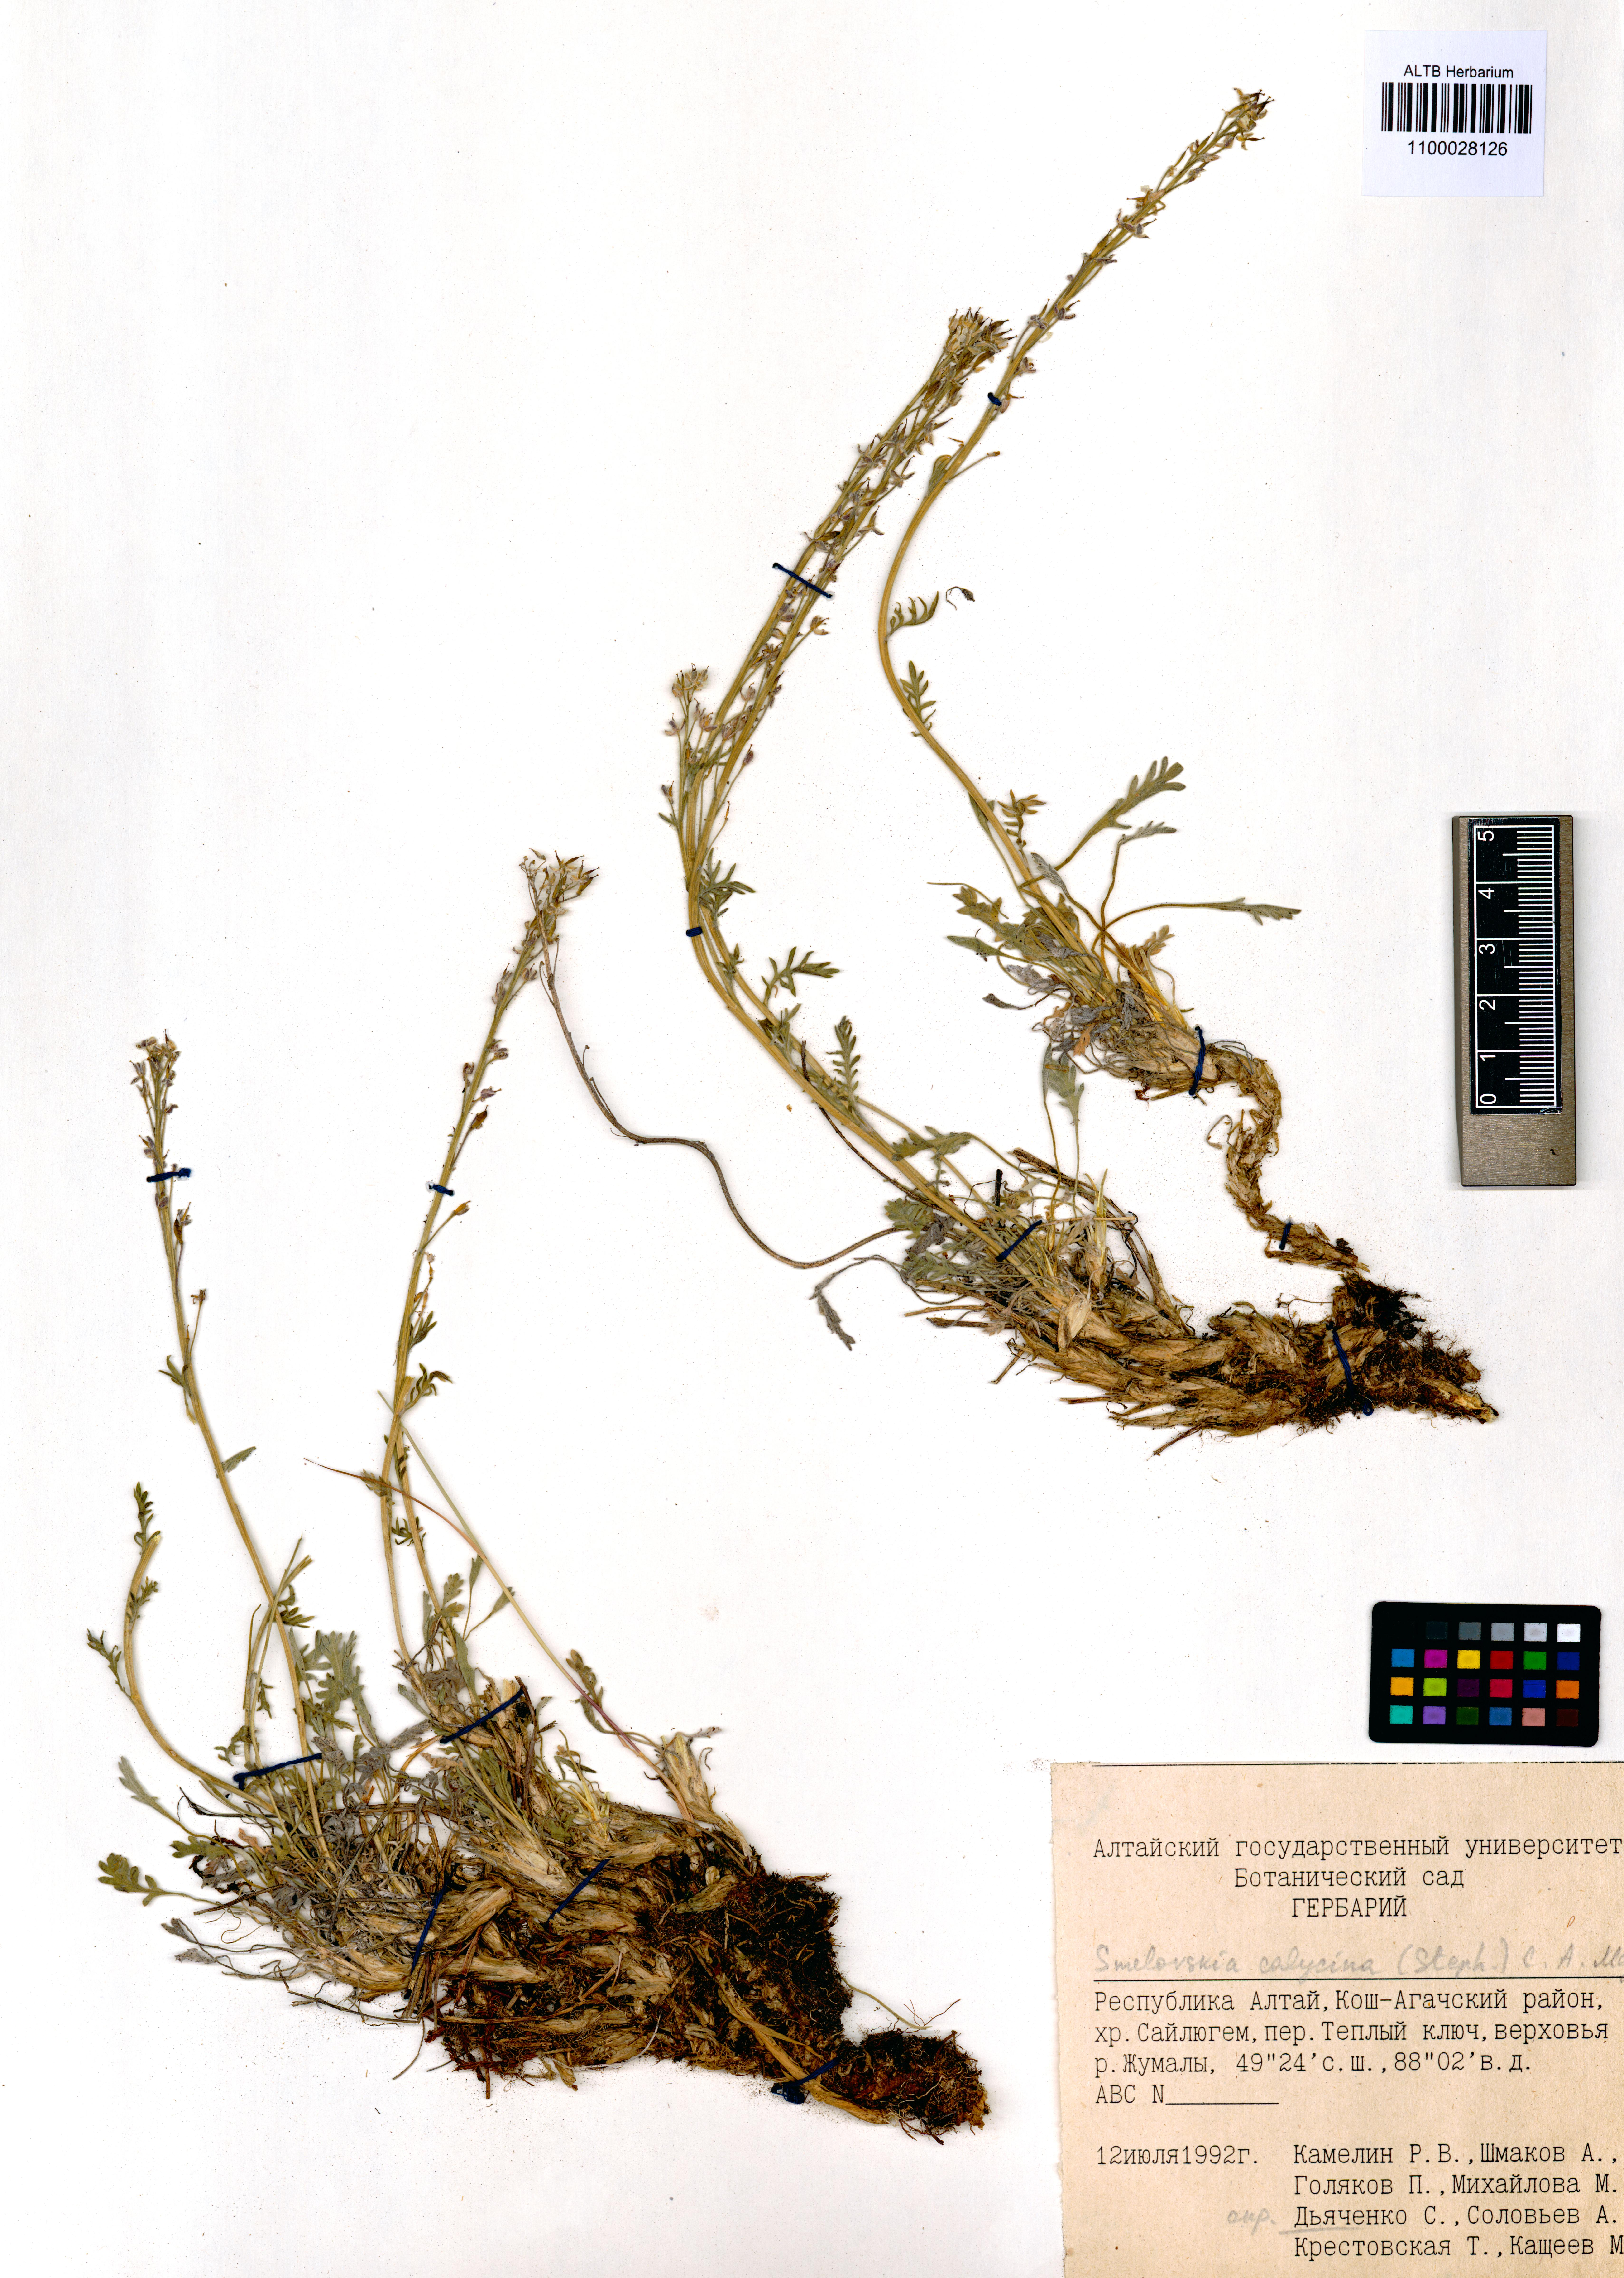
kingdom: Plantae
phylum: Tracheophyta
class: Magnoliopsida
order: Brassicales
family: Brassicaceae
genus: Smelowskia
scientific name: Smelowskia calycina
